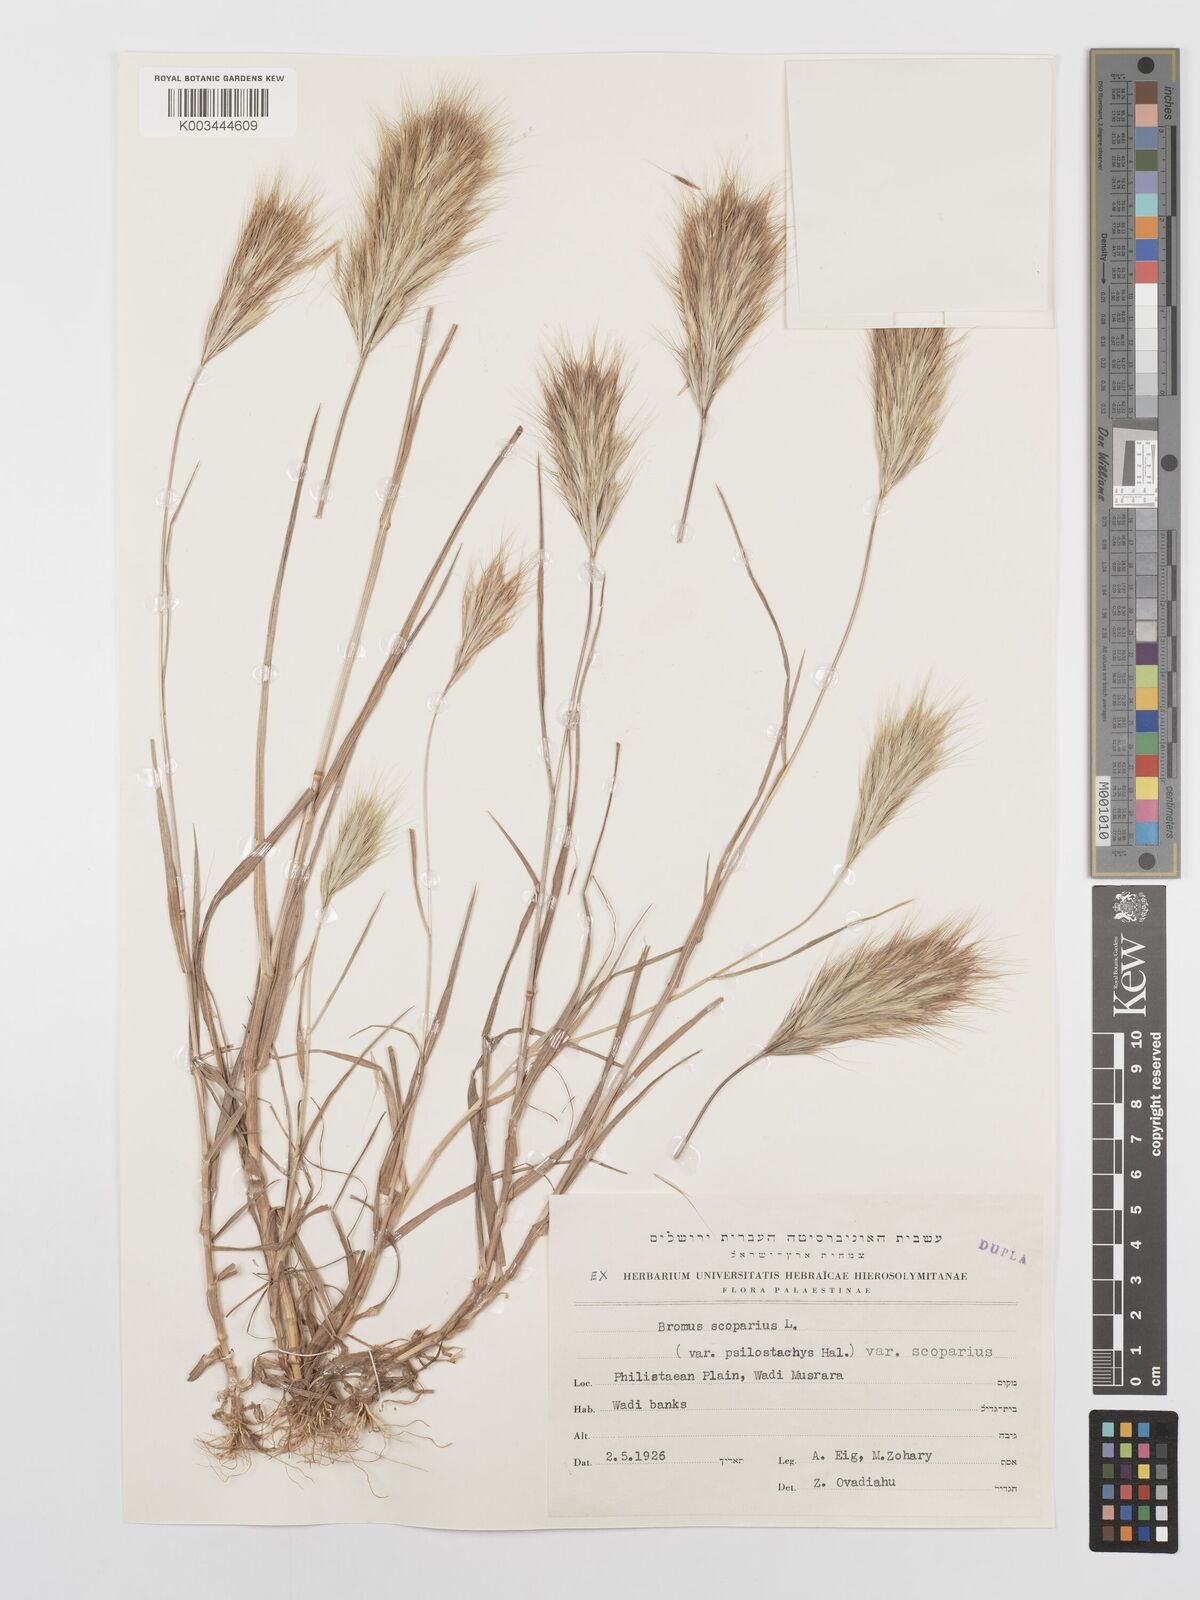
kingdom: Plantae
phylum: Tracheophyta
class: Liliopsida
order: Poales
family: Poaceae
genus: Bromus
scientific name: Bromus scoparius
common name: Broom brome
